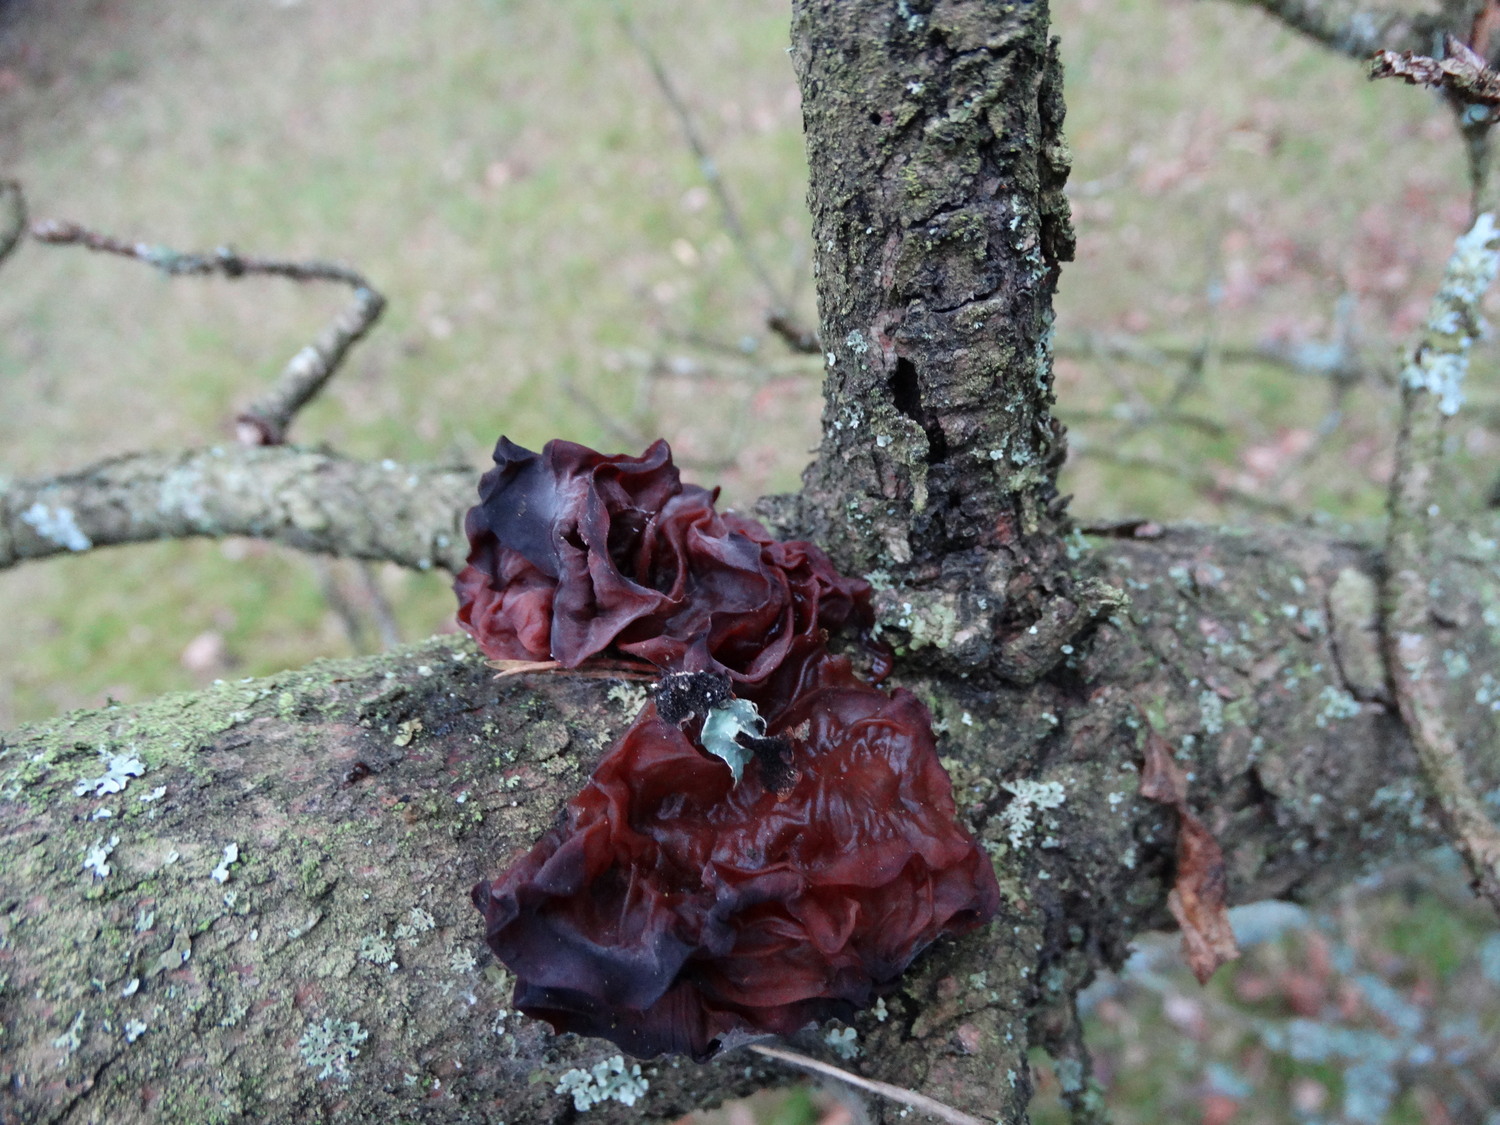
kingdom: Fungi
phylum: Basidiomycota
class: Tremellomycetes
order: Tremellales
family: Tremellaceae
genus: Phaeotremella
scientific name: Phaeotremella foliacea
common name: brun bævresvamp
